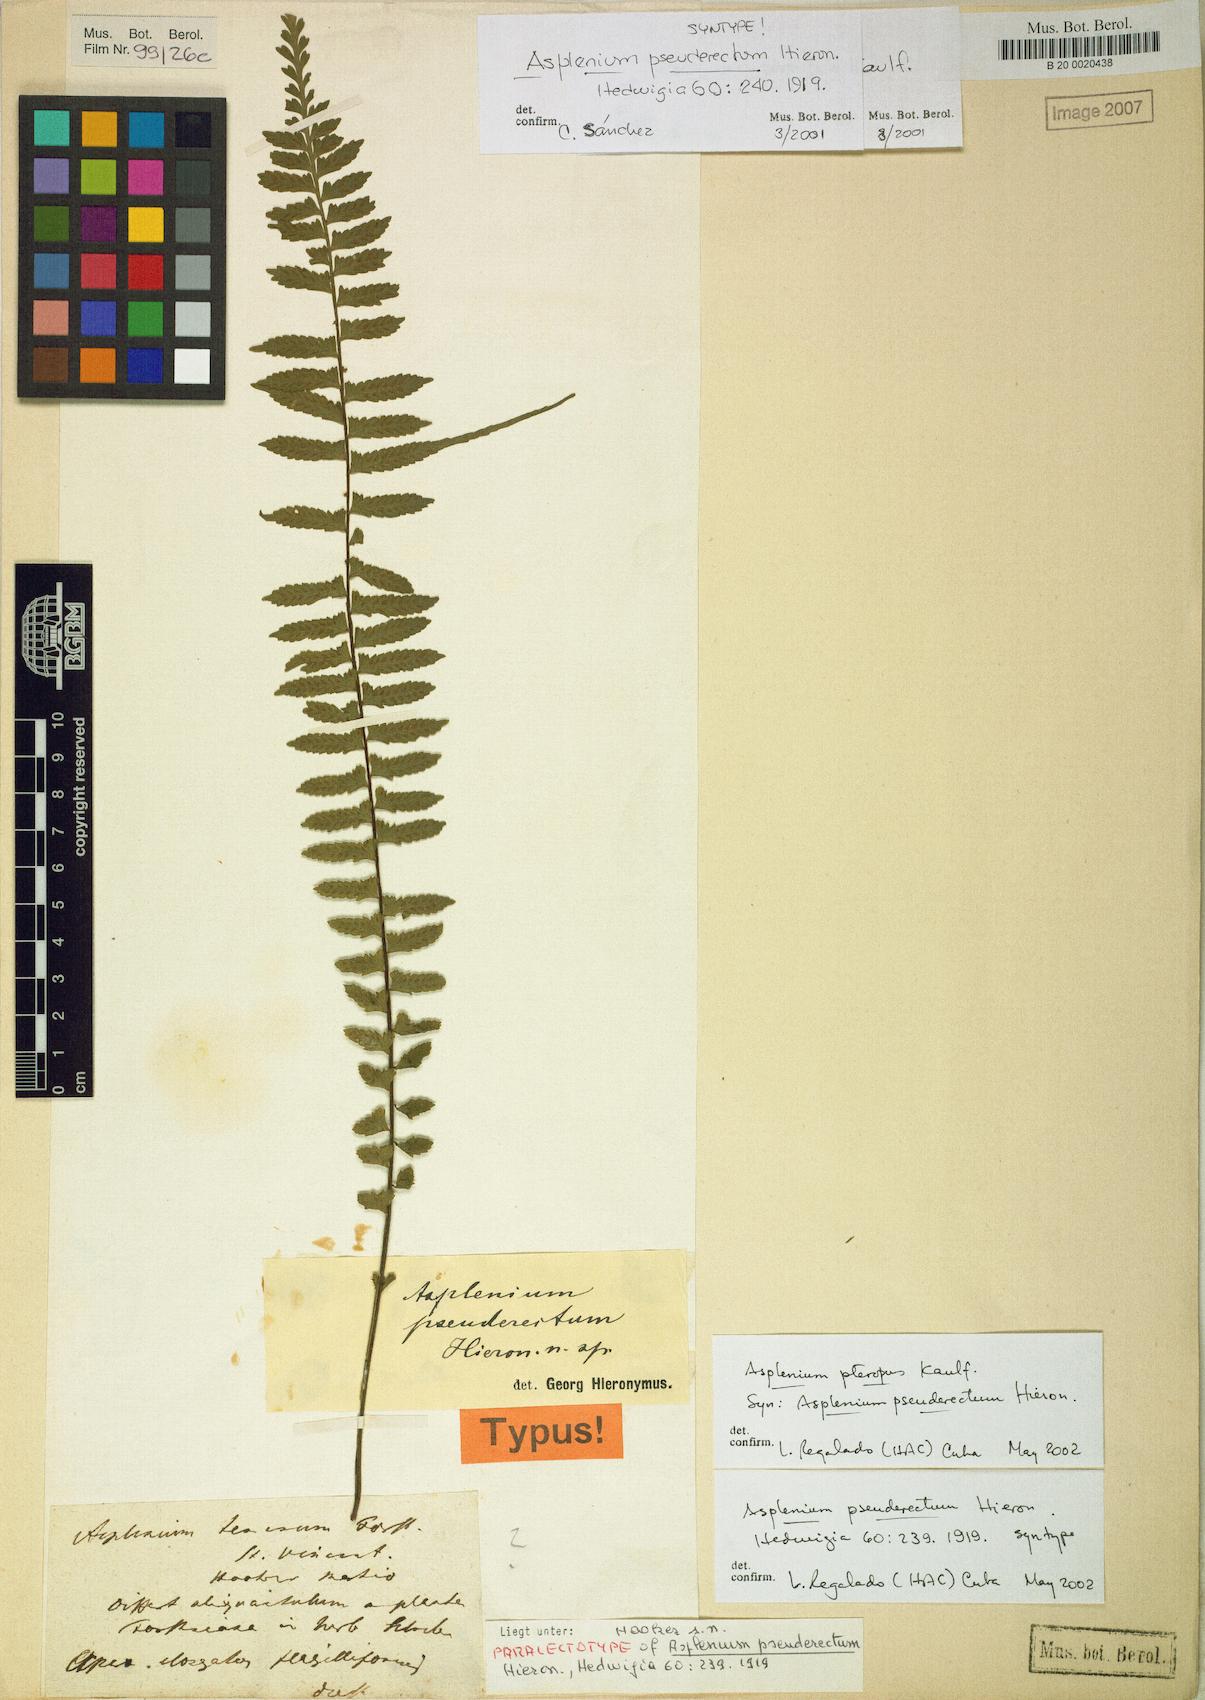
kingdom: Plantae
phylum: Tracheophyta
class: Polypodiopsida
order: Polypodiales
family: Aspleniaceae
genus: Asplenium
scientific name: Asplenium pseuderectum
